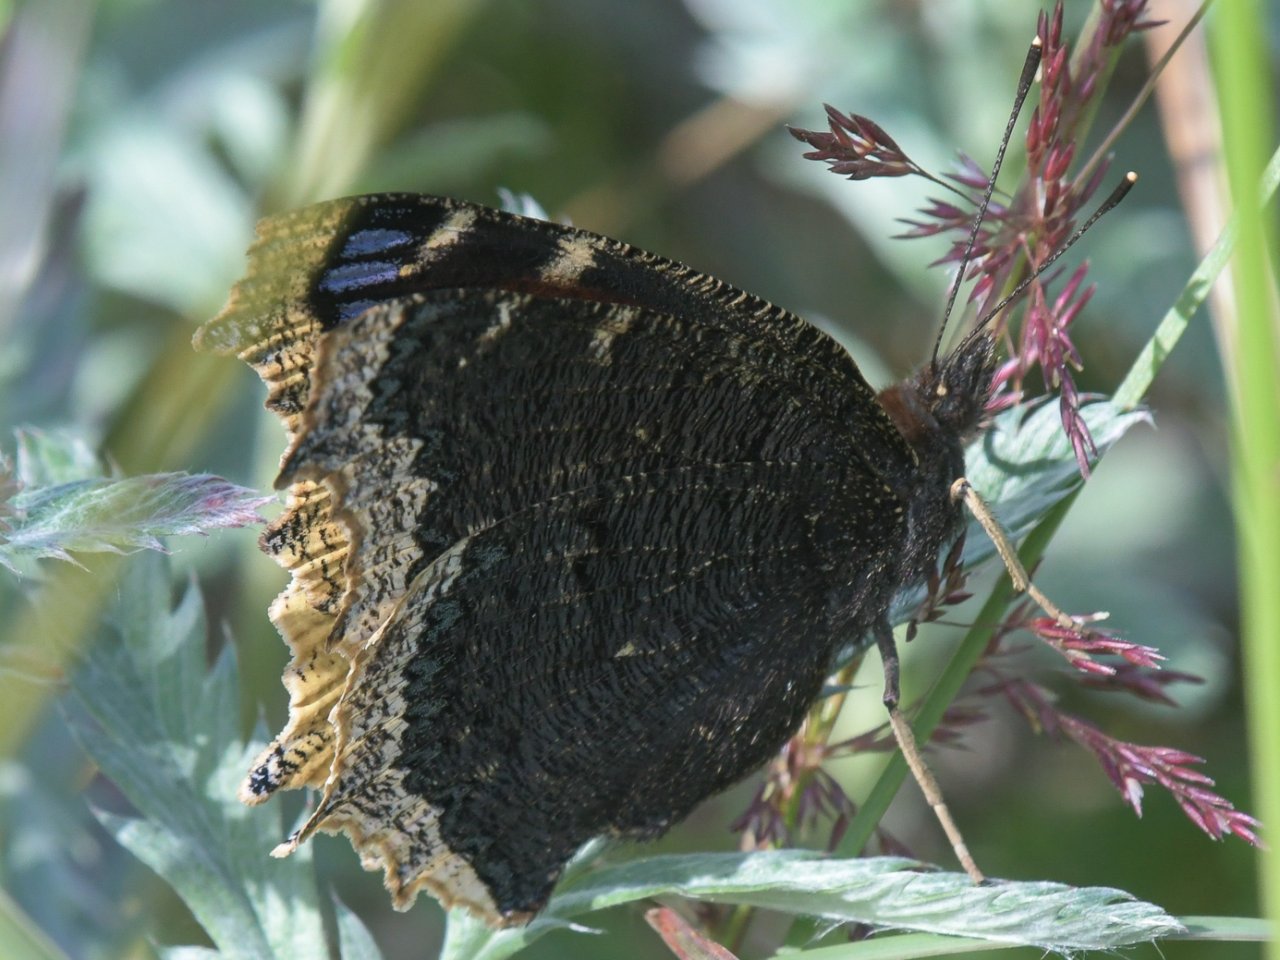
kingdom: Animalia
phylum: Arthropoda
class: Insecta
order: Lepidoptera
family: Nymphalidae
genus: Nymphalis
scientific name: Nymphalis antiopa
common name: Mourning Cloak
